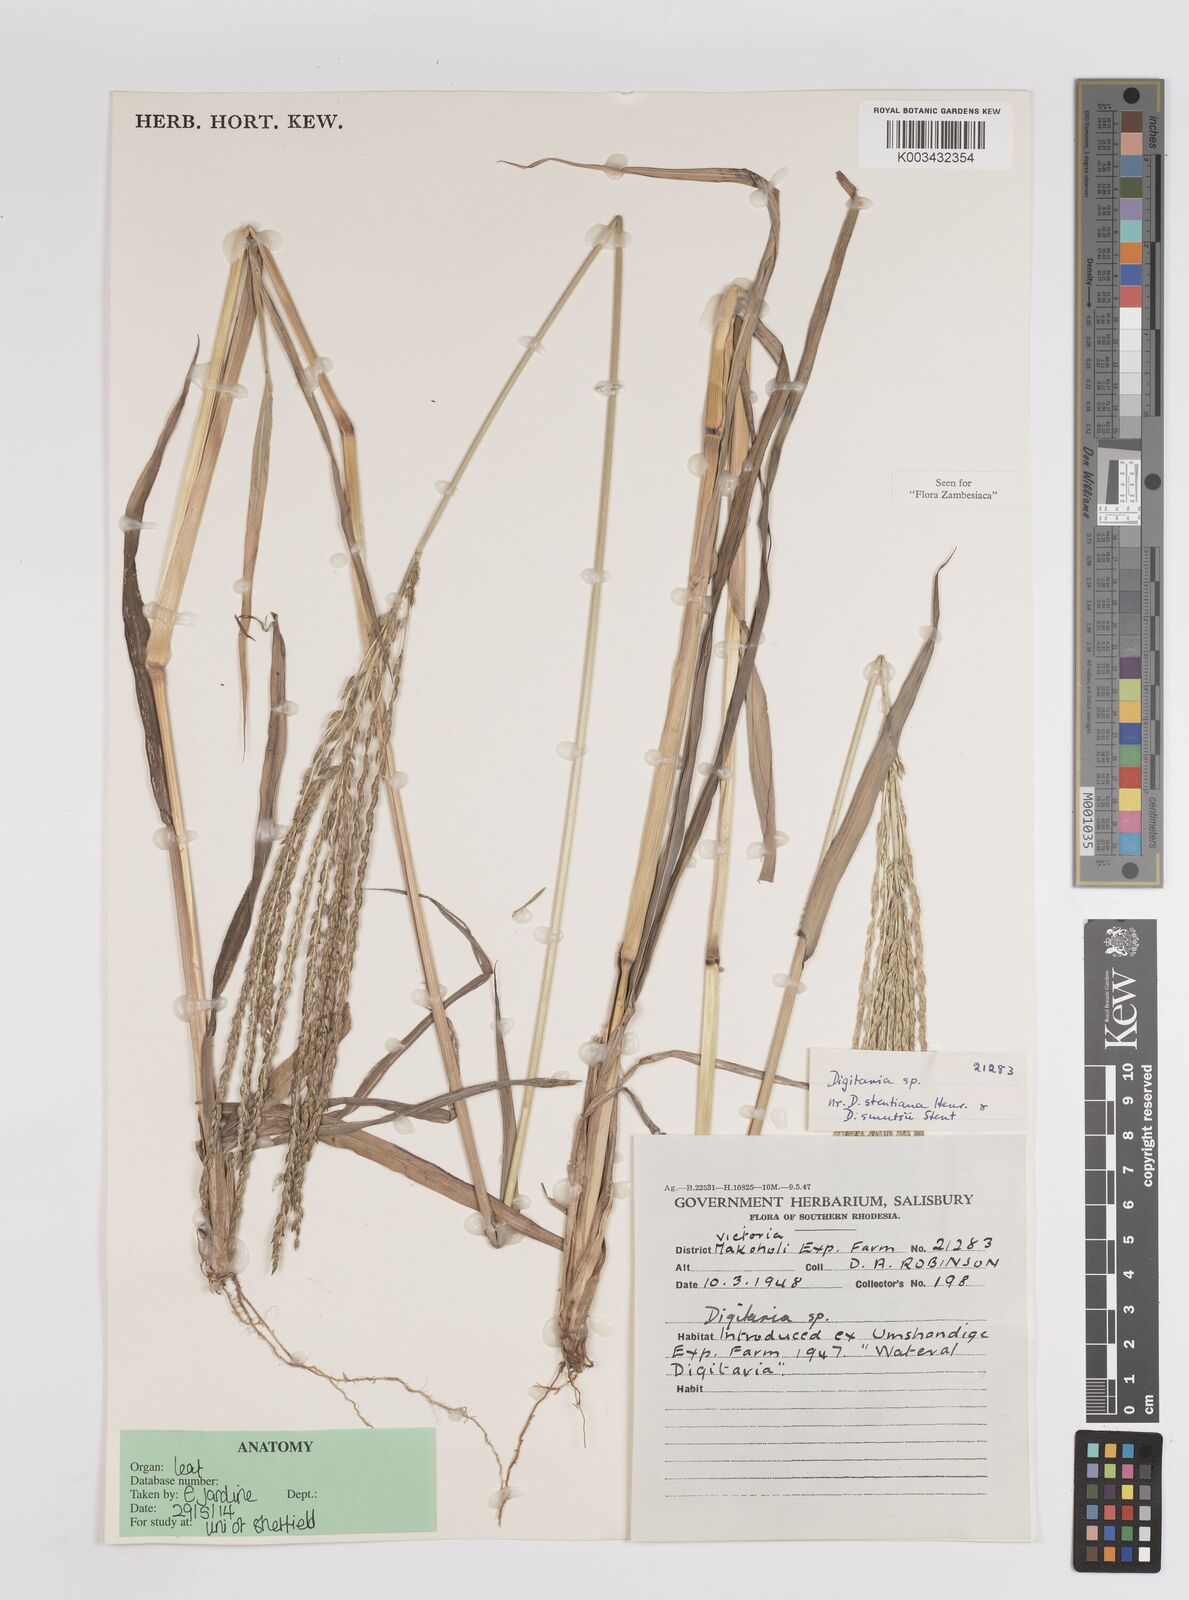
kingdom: Plantae
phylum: Tracheophyta
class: Liliopsida
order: Poales
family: Poaceae
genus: Digitaria
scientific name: Digitaria eriantha
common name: Digitgrass
